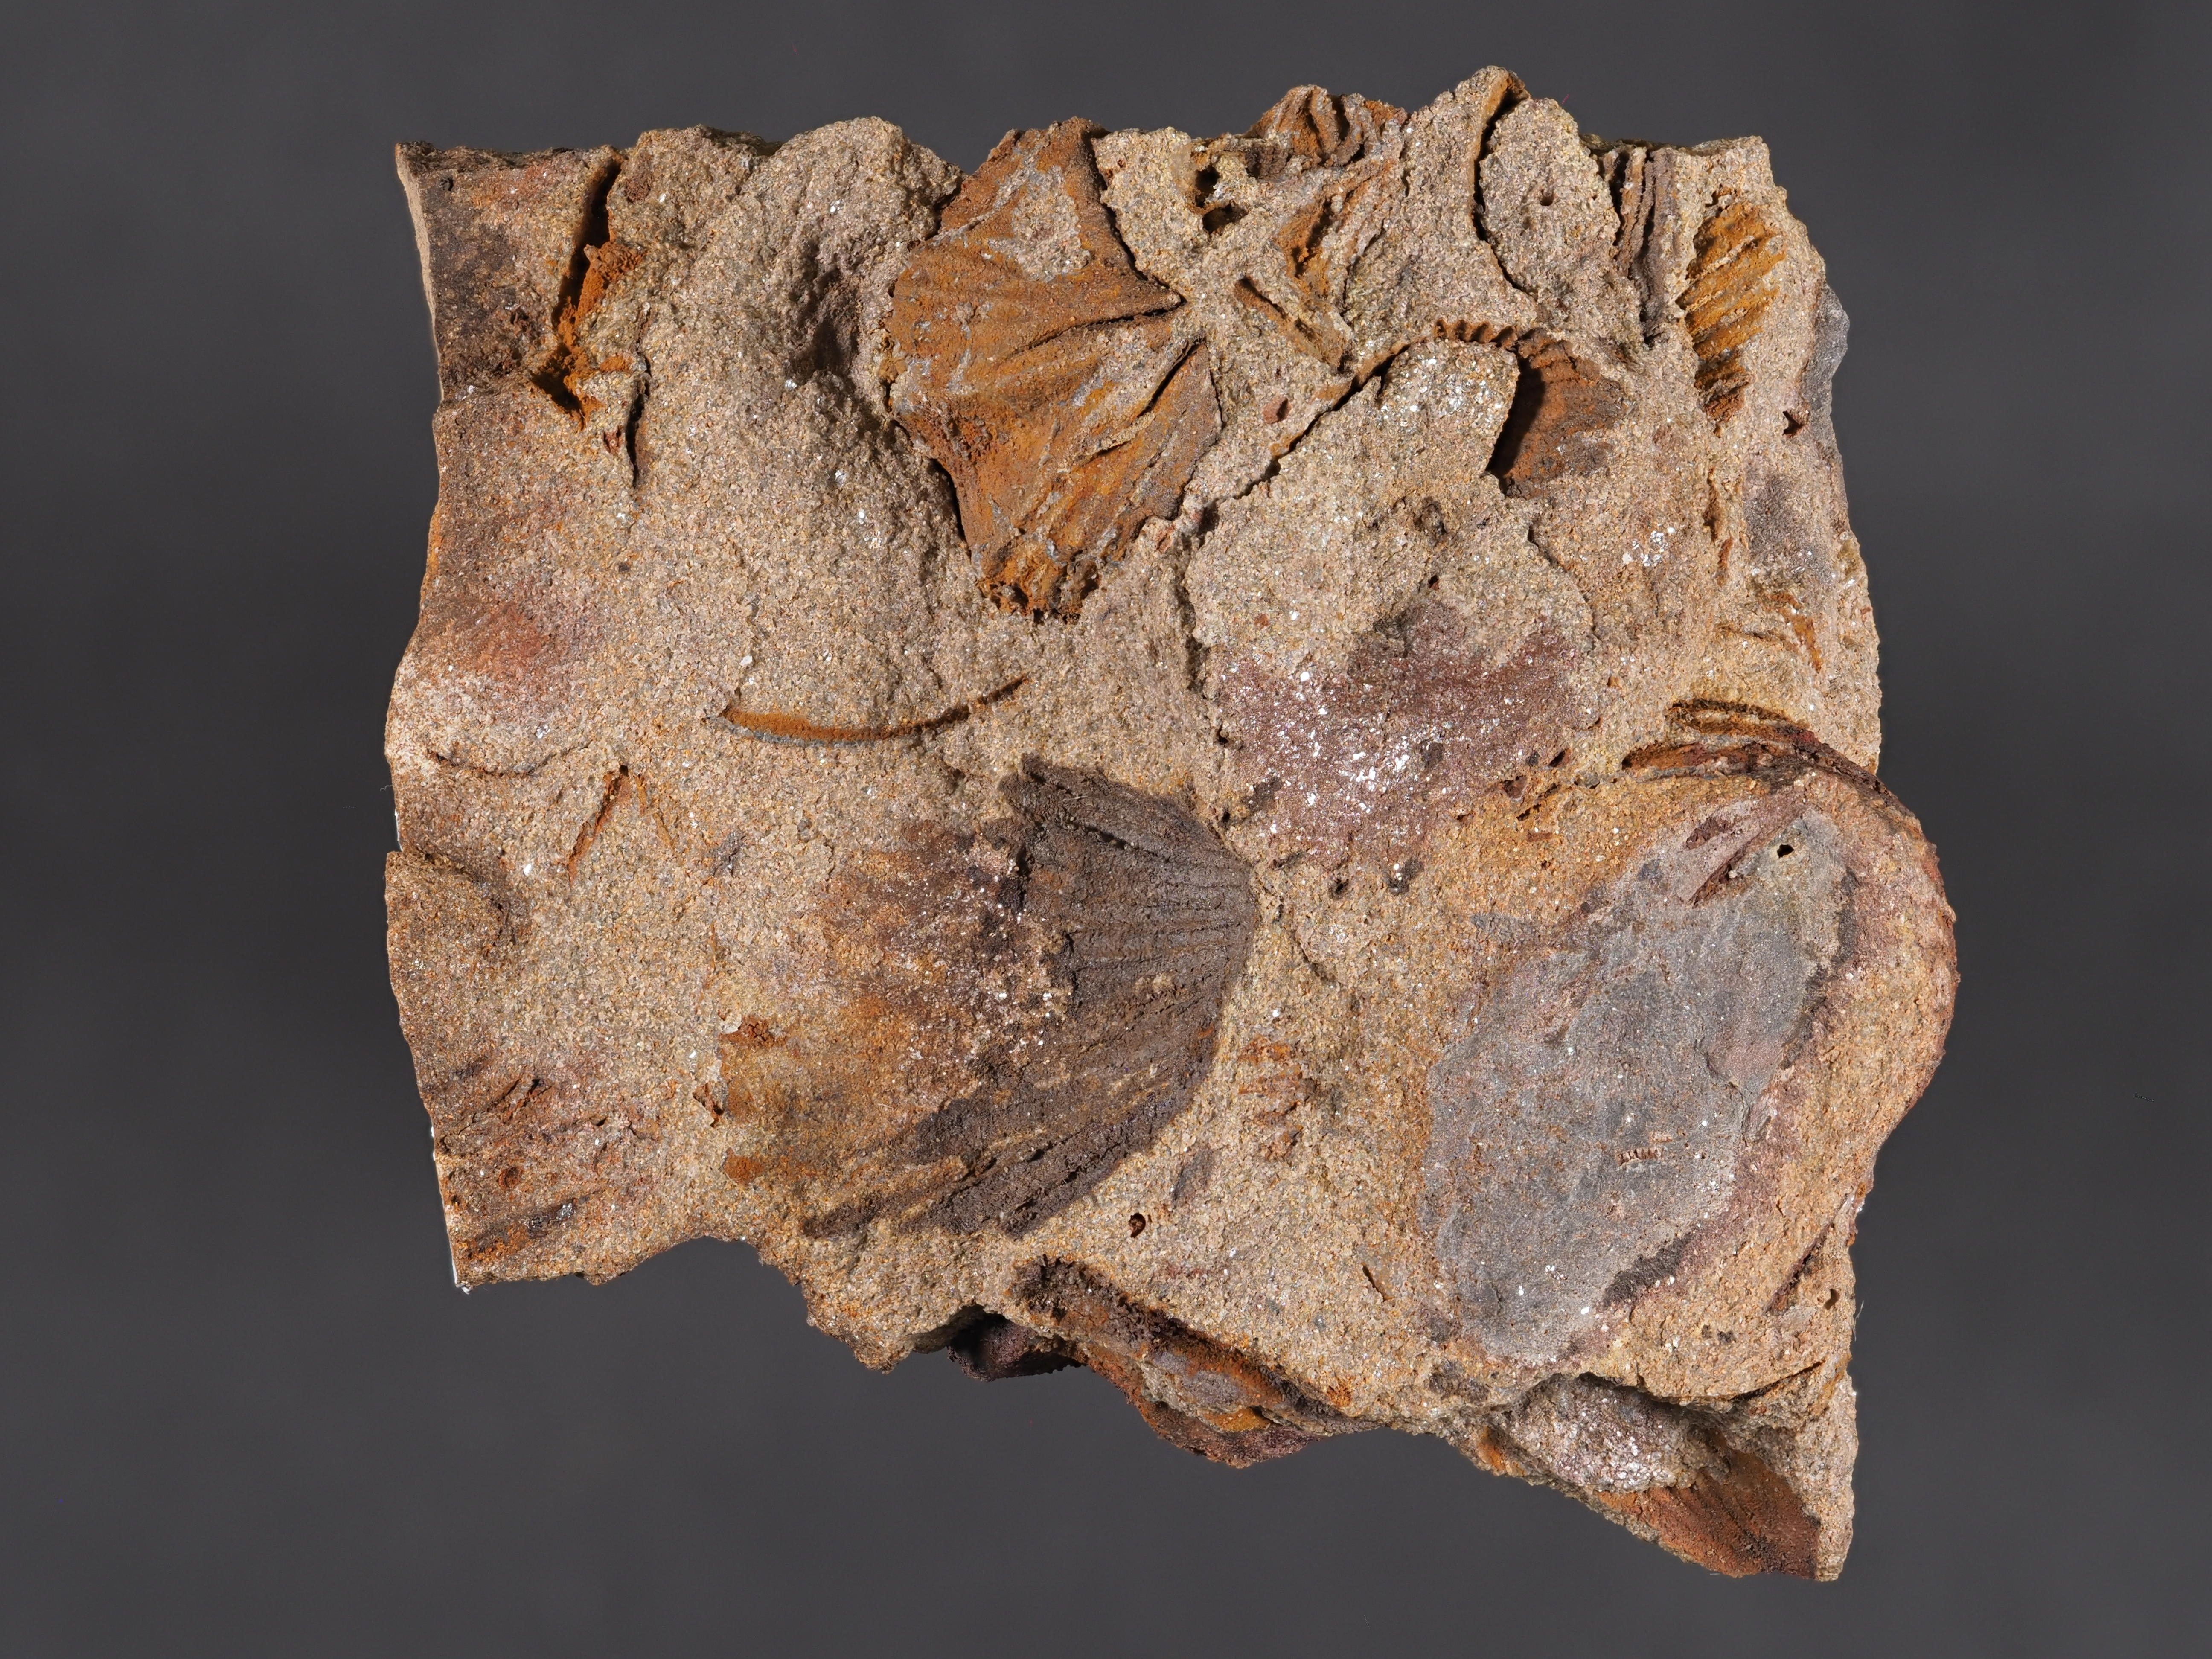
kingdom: Animalia
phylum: Brachiopoda
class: Rhynchonellata
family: Delthyrididae
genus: Brachyspirifer
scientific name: Brachyspirifer
